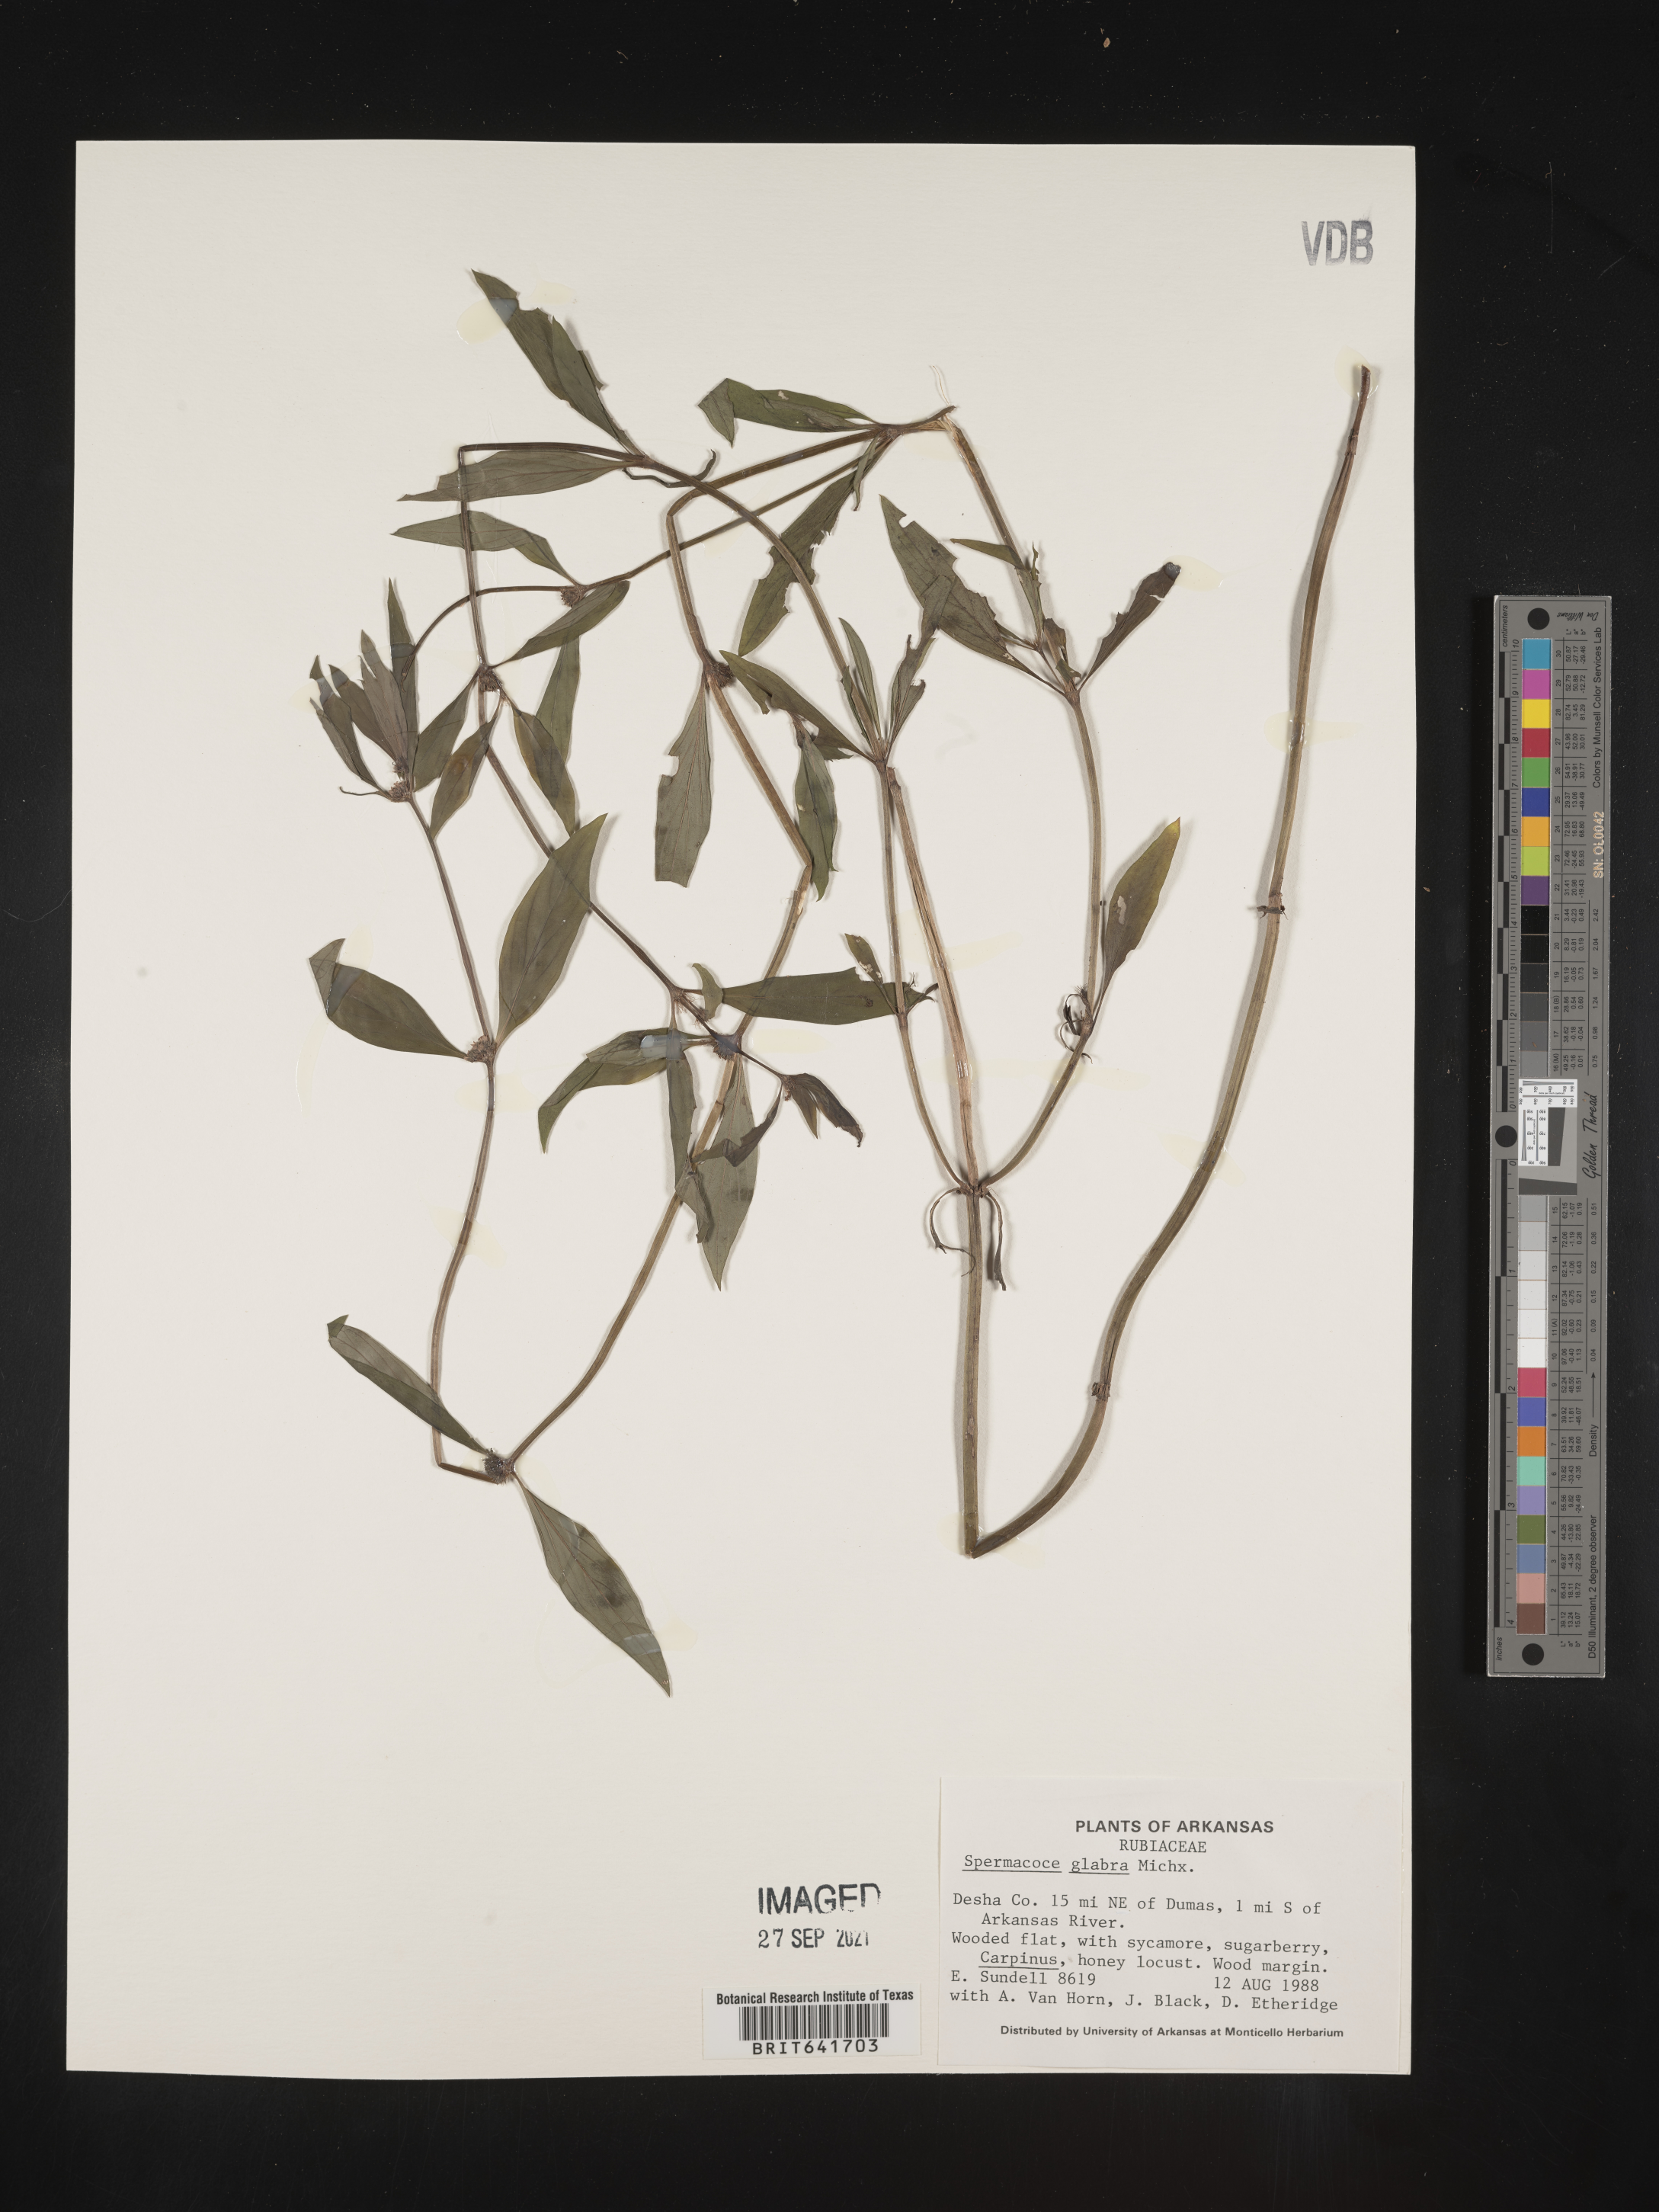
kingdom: Plantae
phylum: Tracheophyta
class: Magnoliopsida
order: Gentianales
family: Rubiaceae
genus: Spermacoce
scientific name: Spermacoce glabra
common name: Smooth buttonweed
